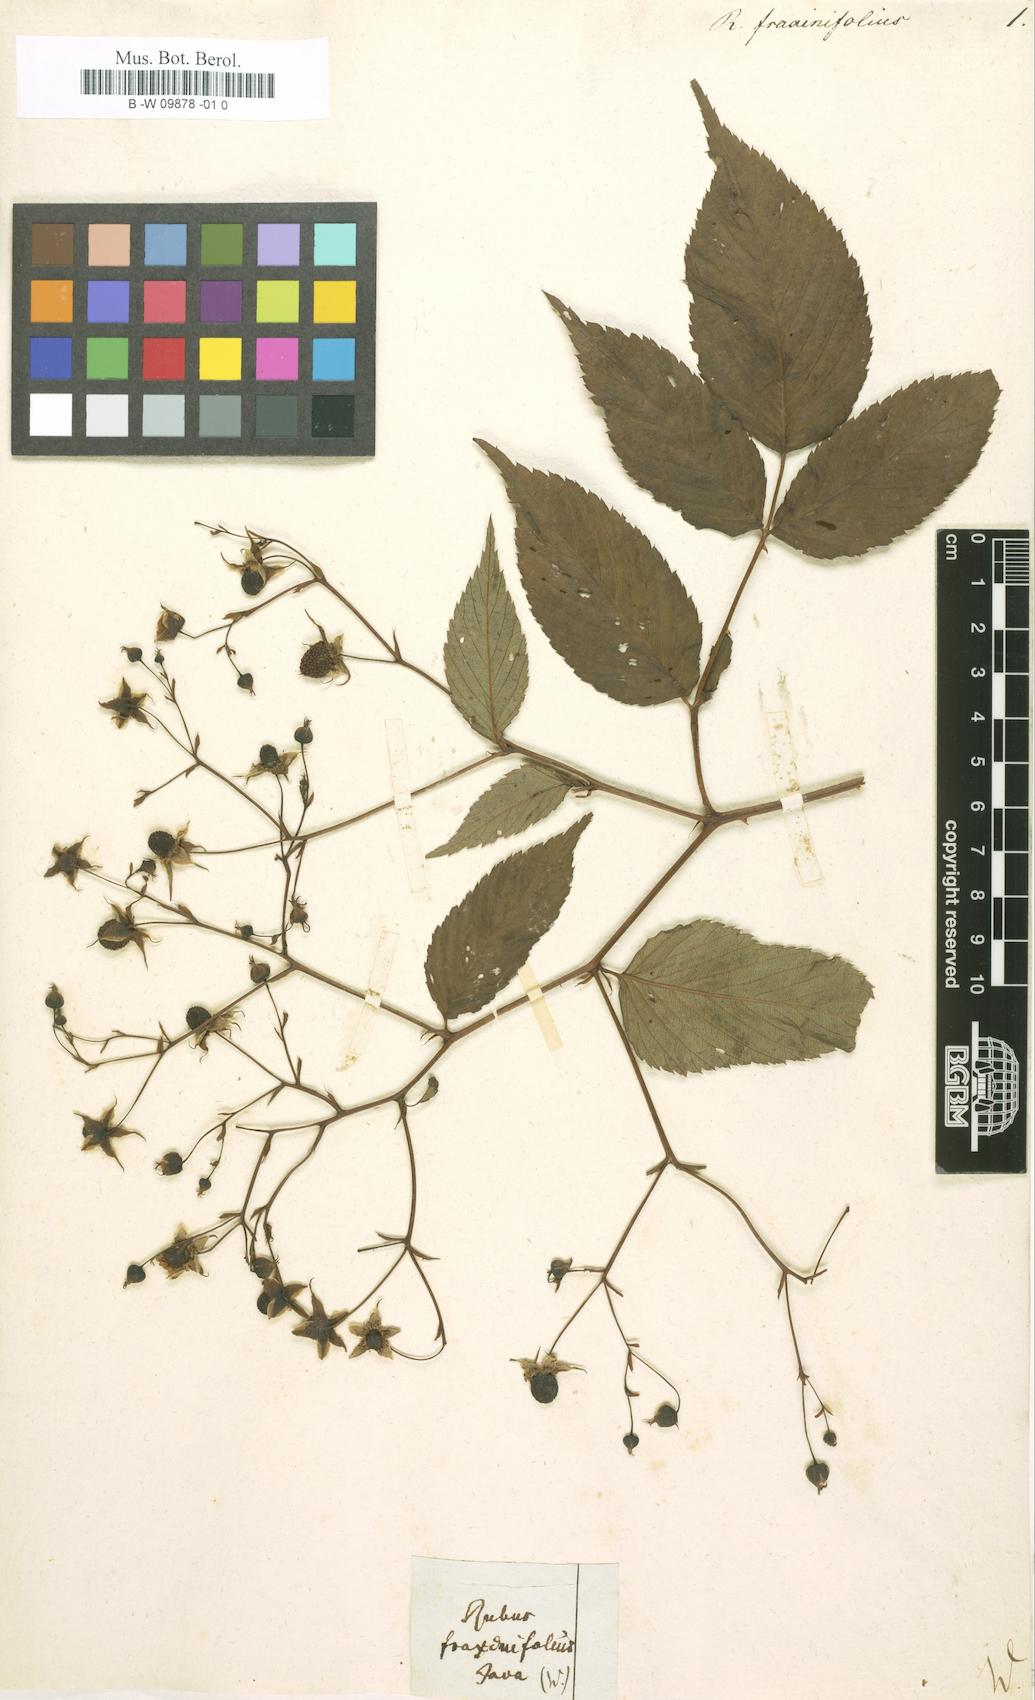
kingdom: Plantae
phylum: Tracheophyta
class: Magnoliopsida
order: Rosales
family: Rosaceae
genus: Rubus
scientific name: Rubus fraxinifolius
